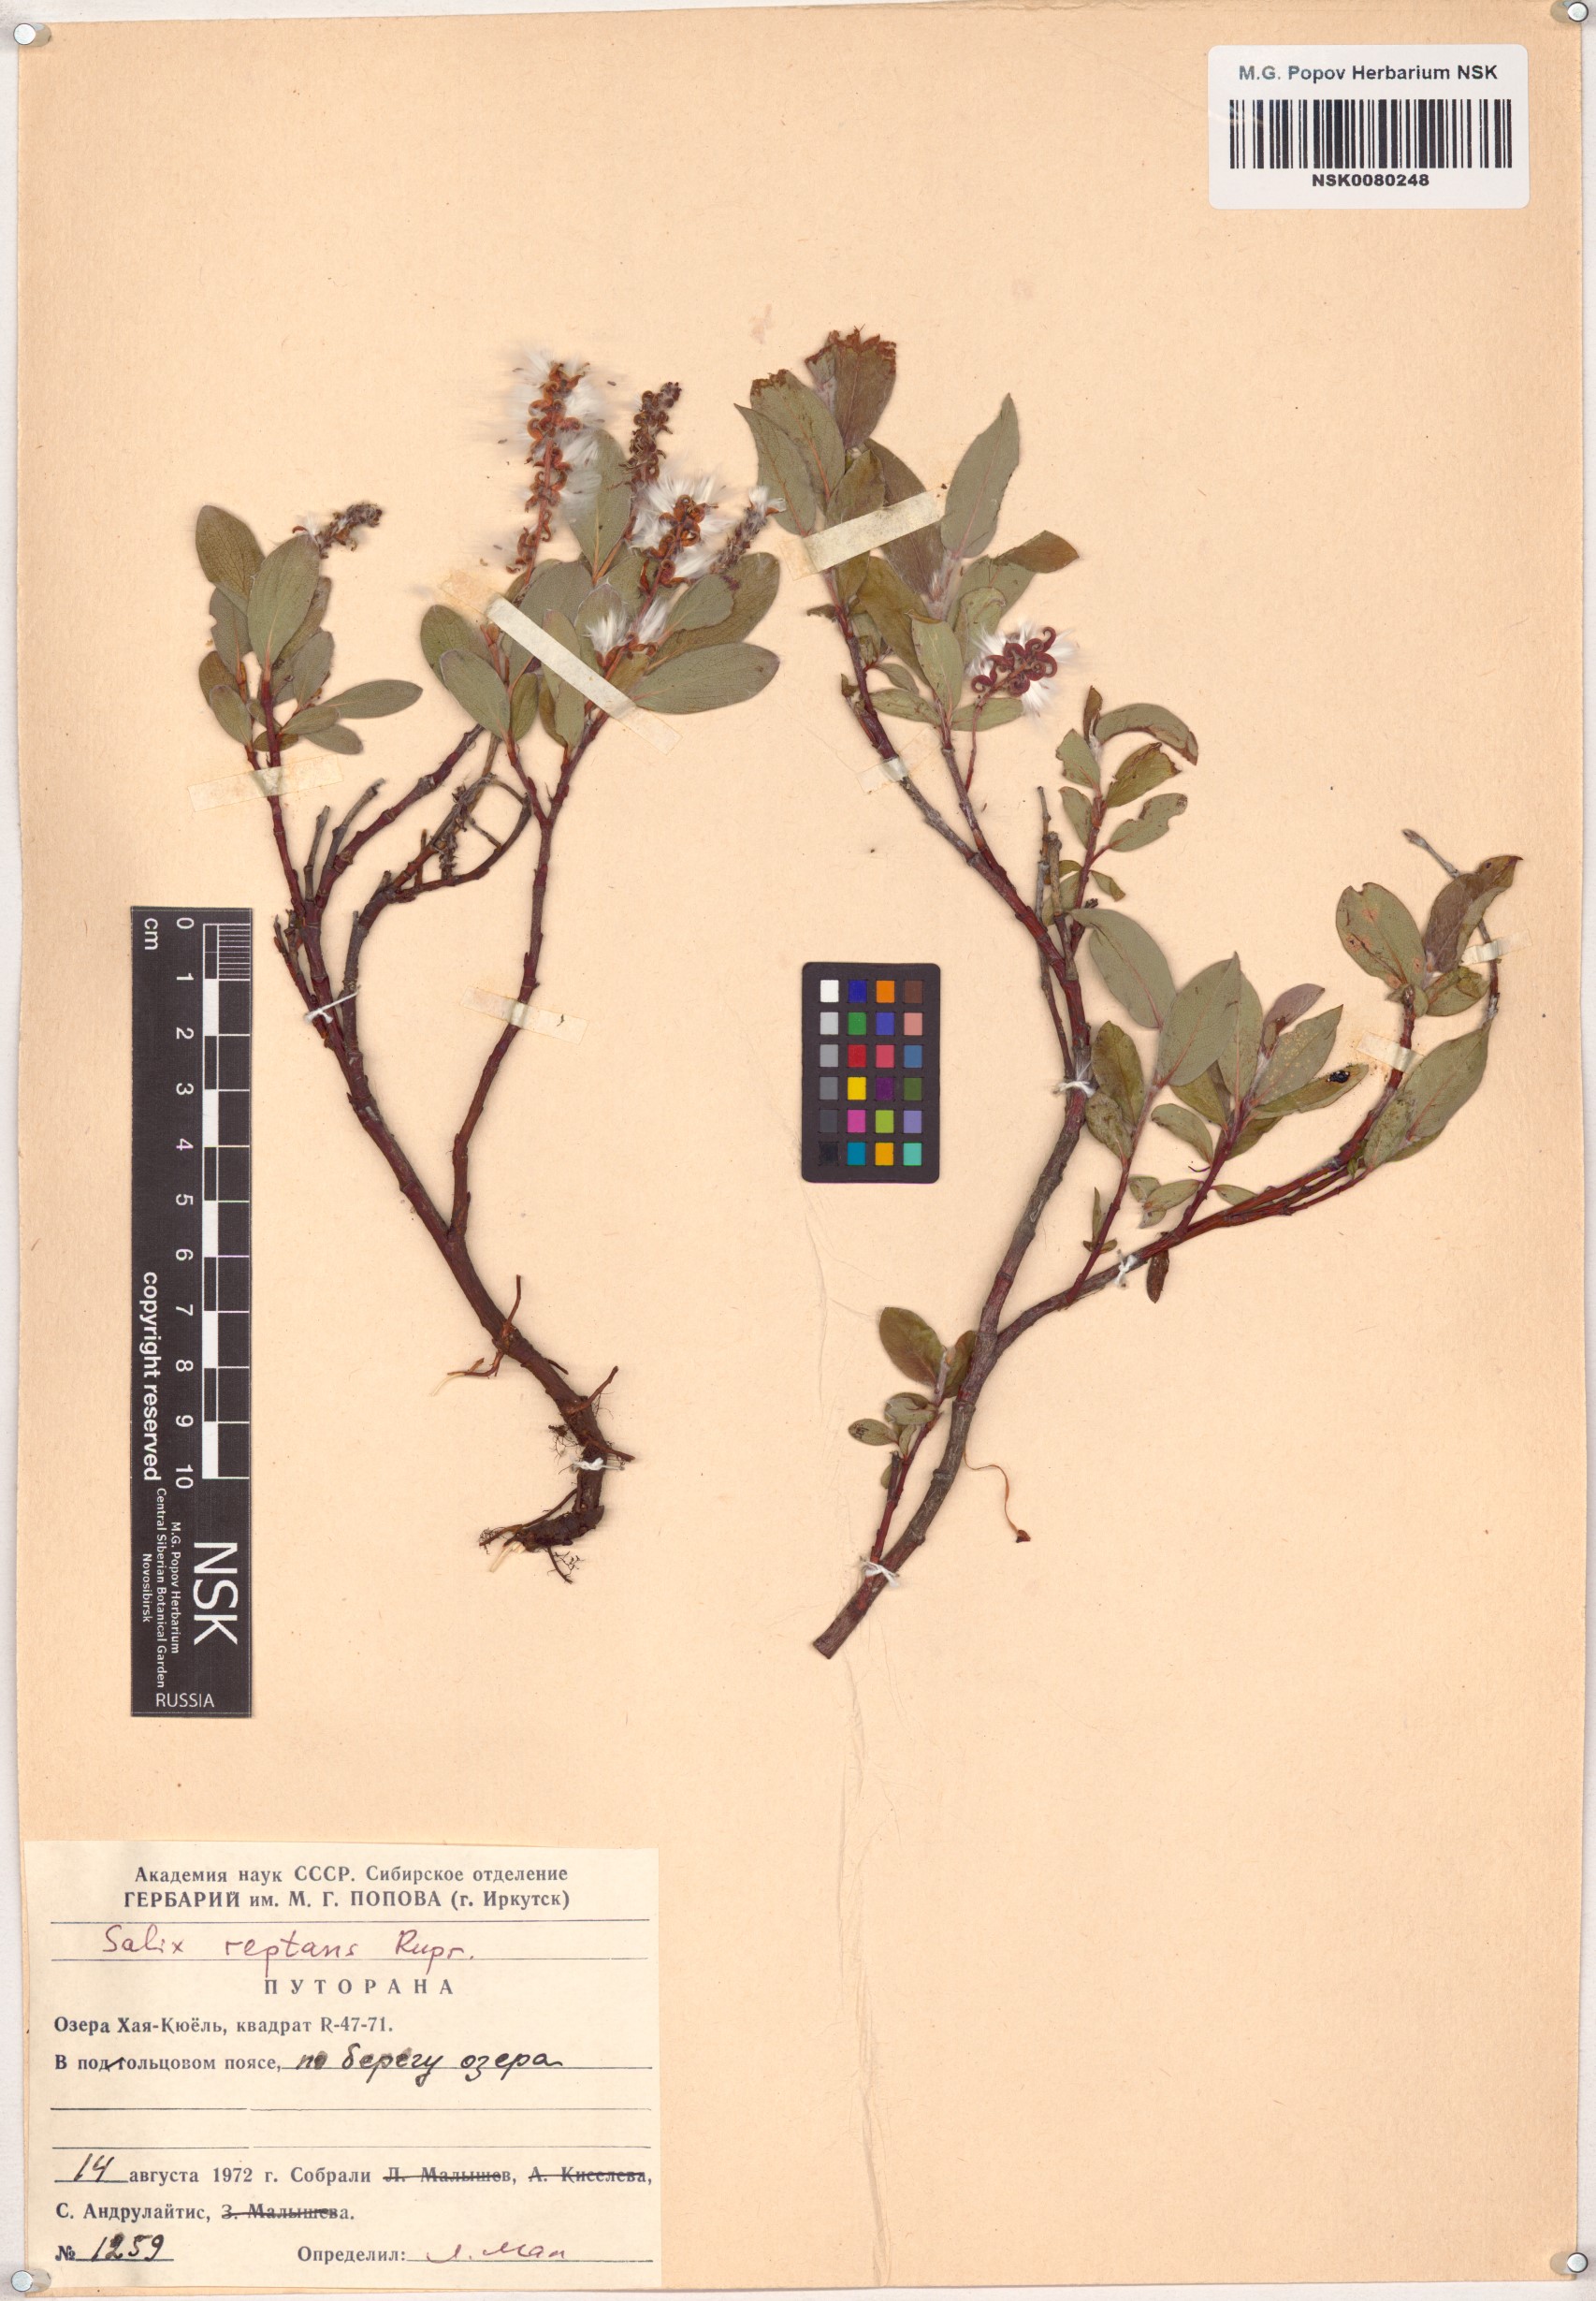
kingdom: Plantae
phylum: Tracheophyta
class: Magnoliopsida
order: Malpighiales
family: Salicaceae
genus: Salix
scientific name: Salix reptans
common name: Arctic creeping willow
